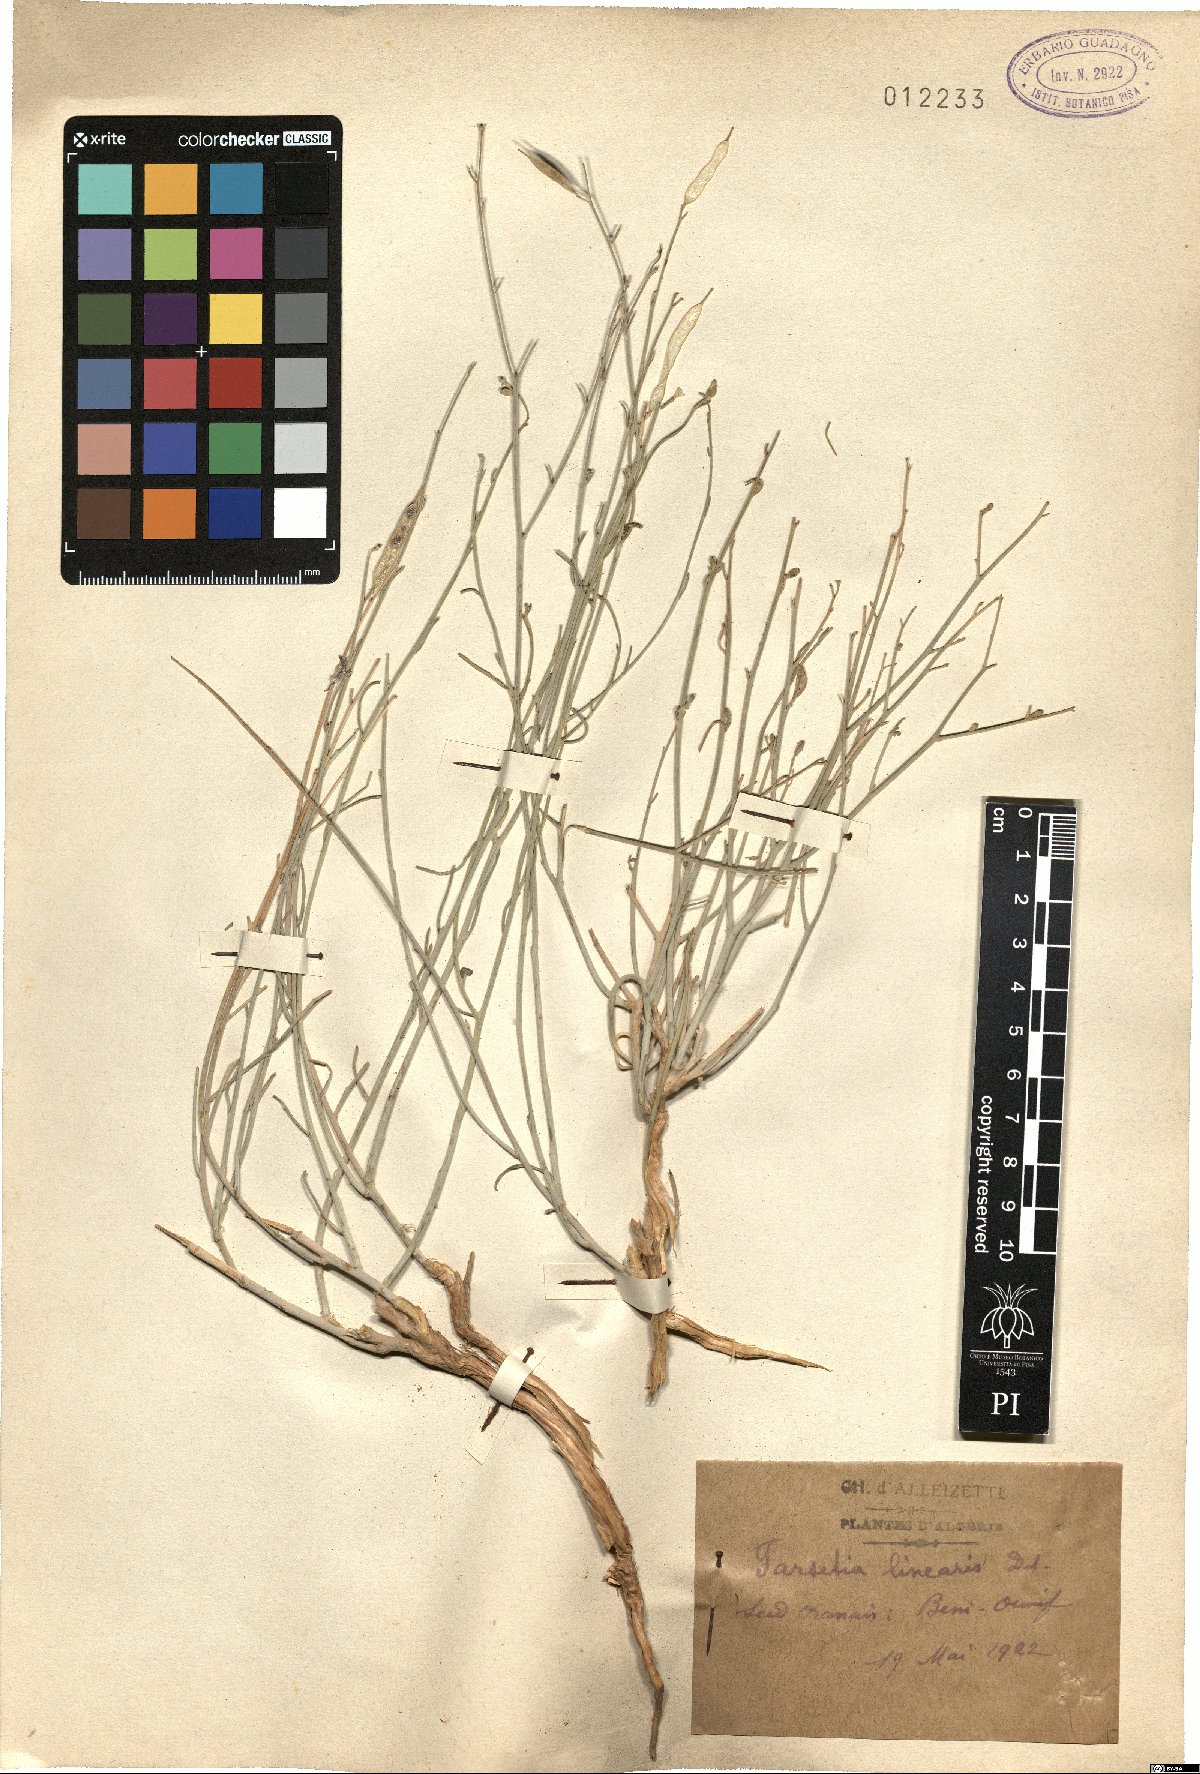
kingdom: Plantae
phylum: Tracheophyta
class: Magnoliopsida
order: Brassicales
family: Brassicaceae
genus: Farsetia
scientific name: Farsetia linearis
